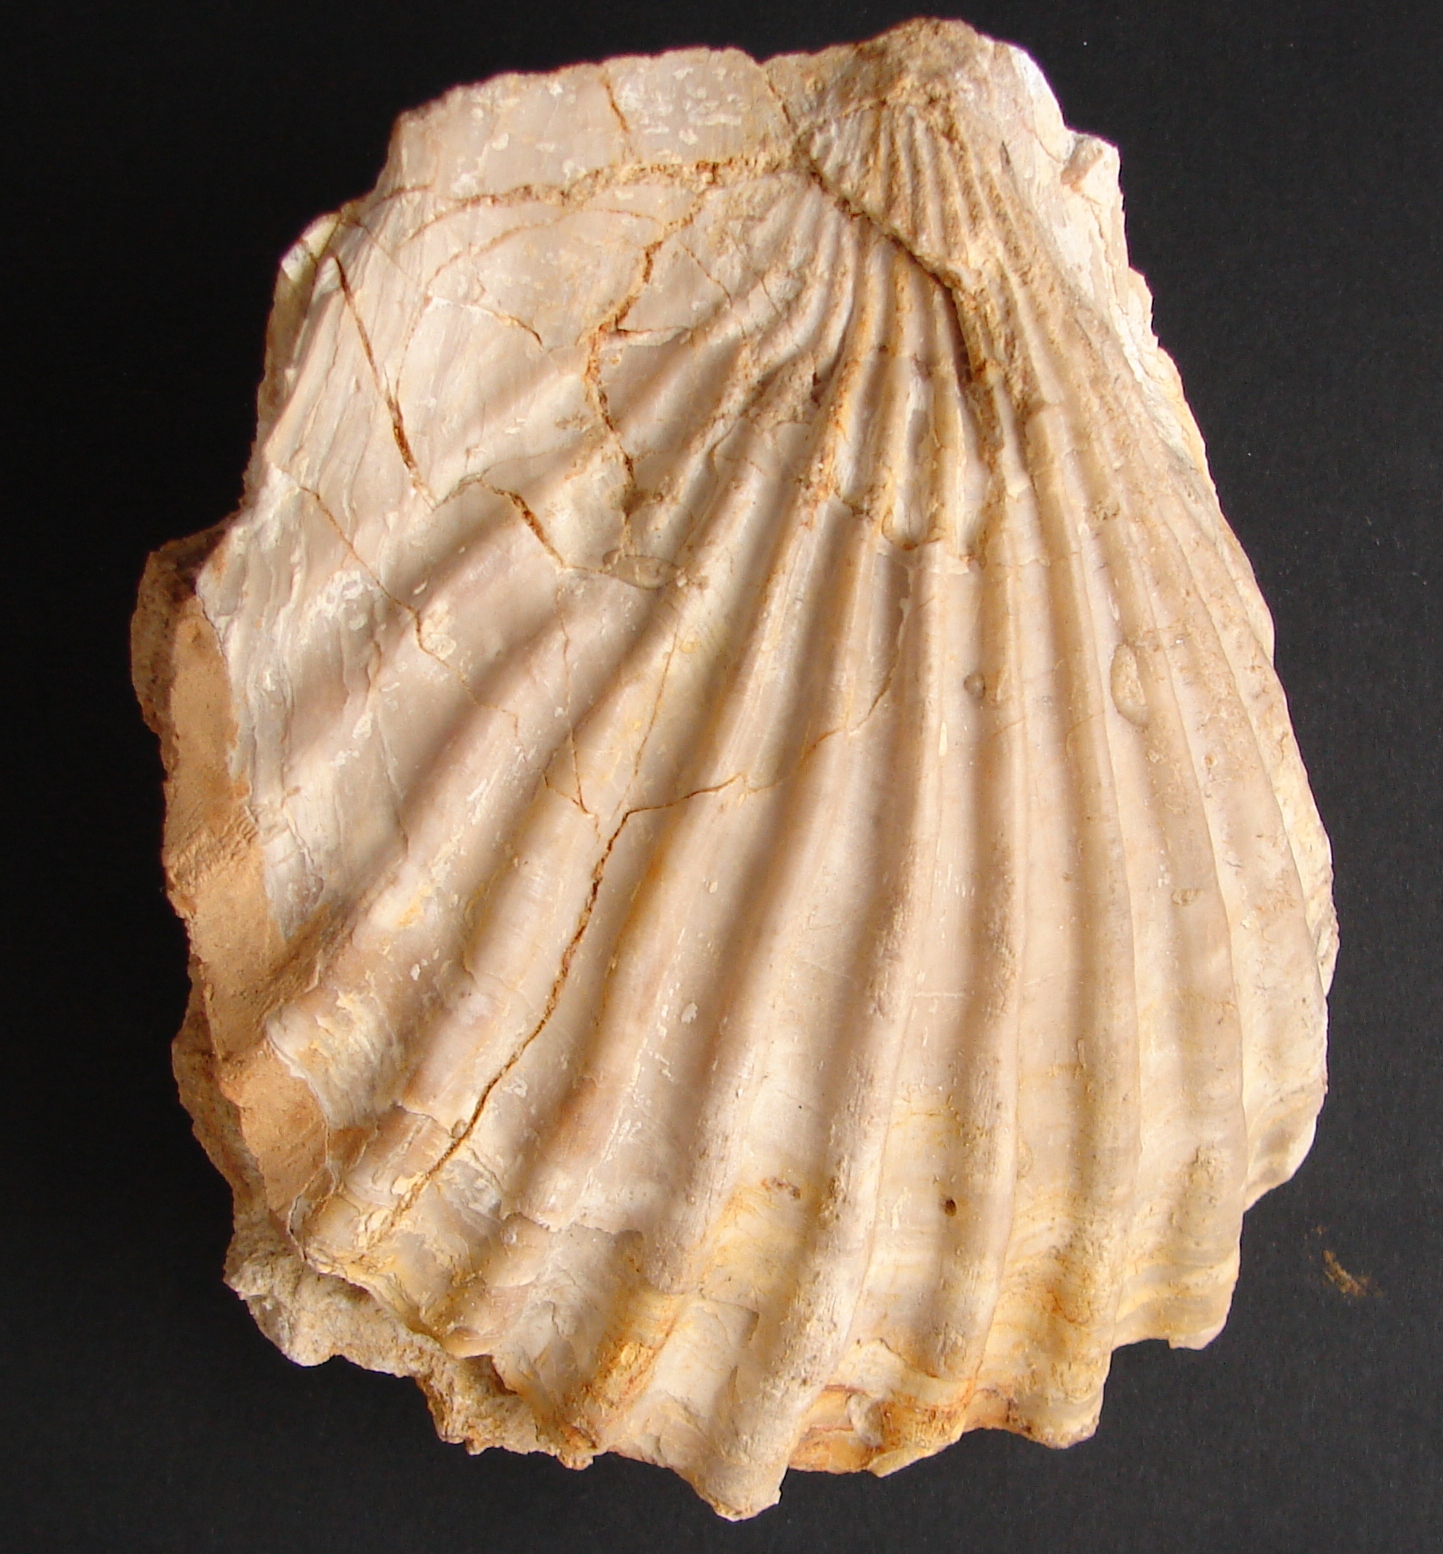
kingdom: Animalia
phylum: Mollusca
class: Bivalvia
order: Limida
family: Limidae
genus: Ctenostreon
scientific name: Ctenostreon Lima rugosum
